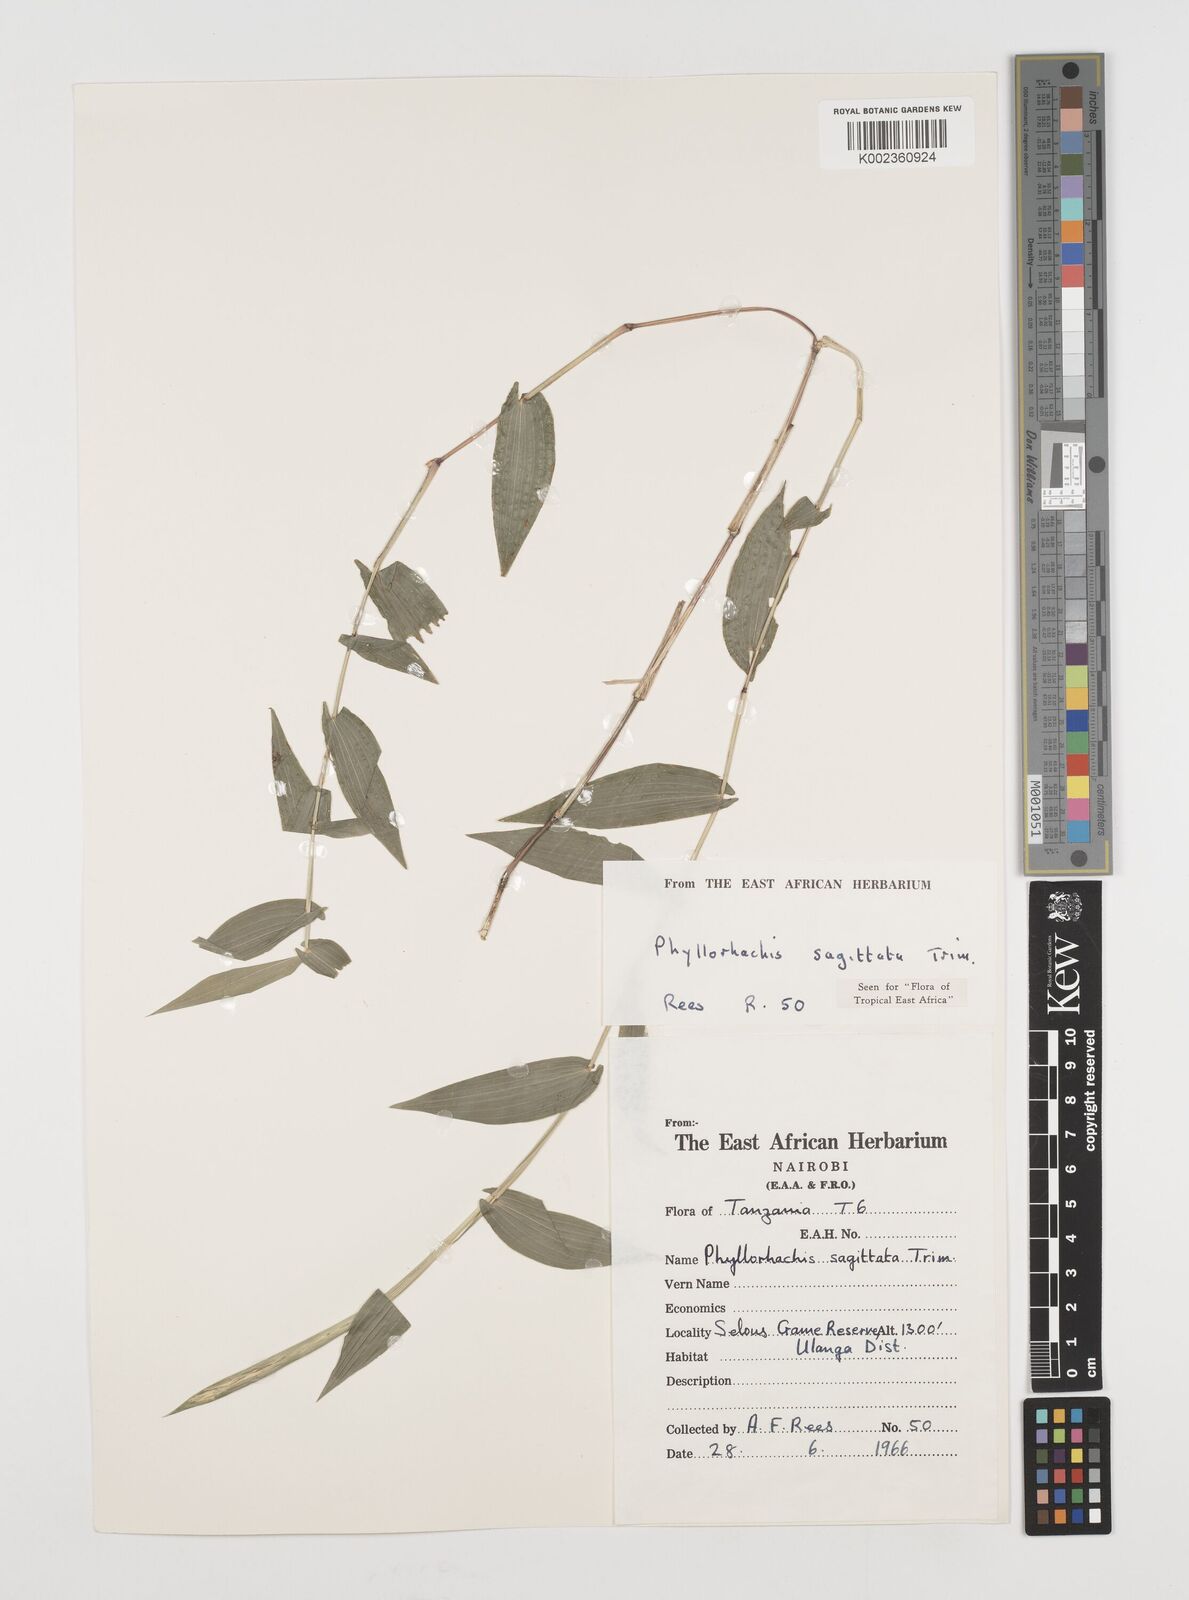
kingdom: Plantae
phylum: Tracheophyta
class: Liliopsida
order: Poales
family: Poaceae
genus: Phyllorachis
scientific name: Phyllorachis sagittata
